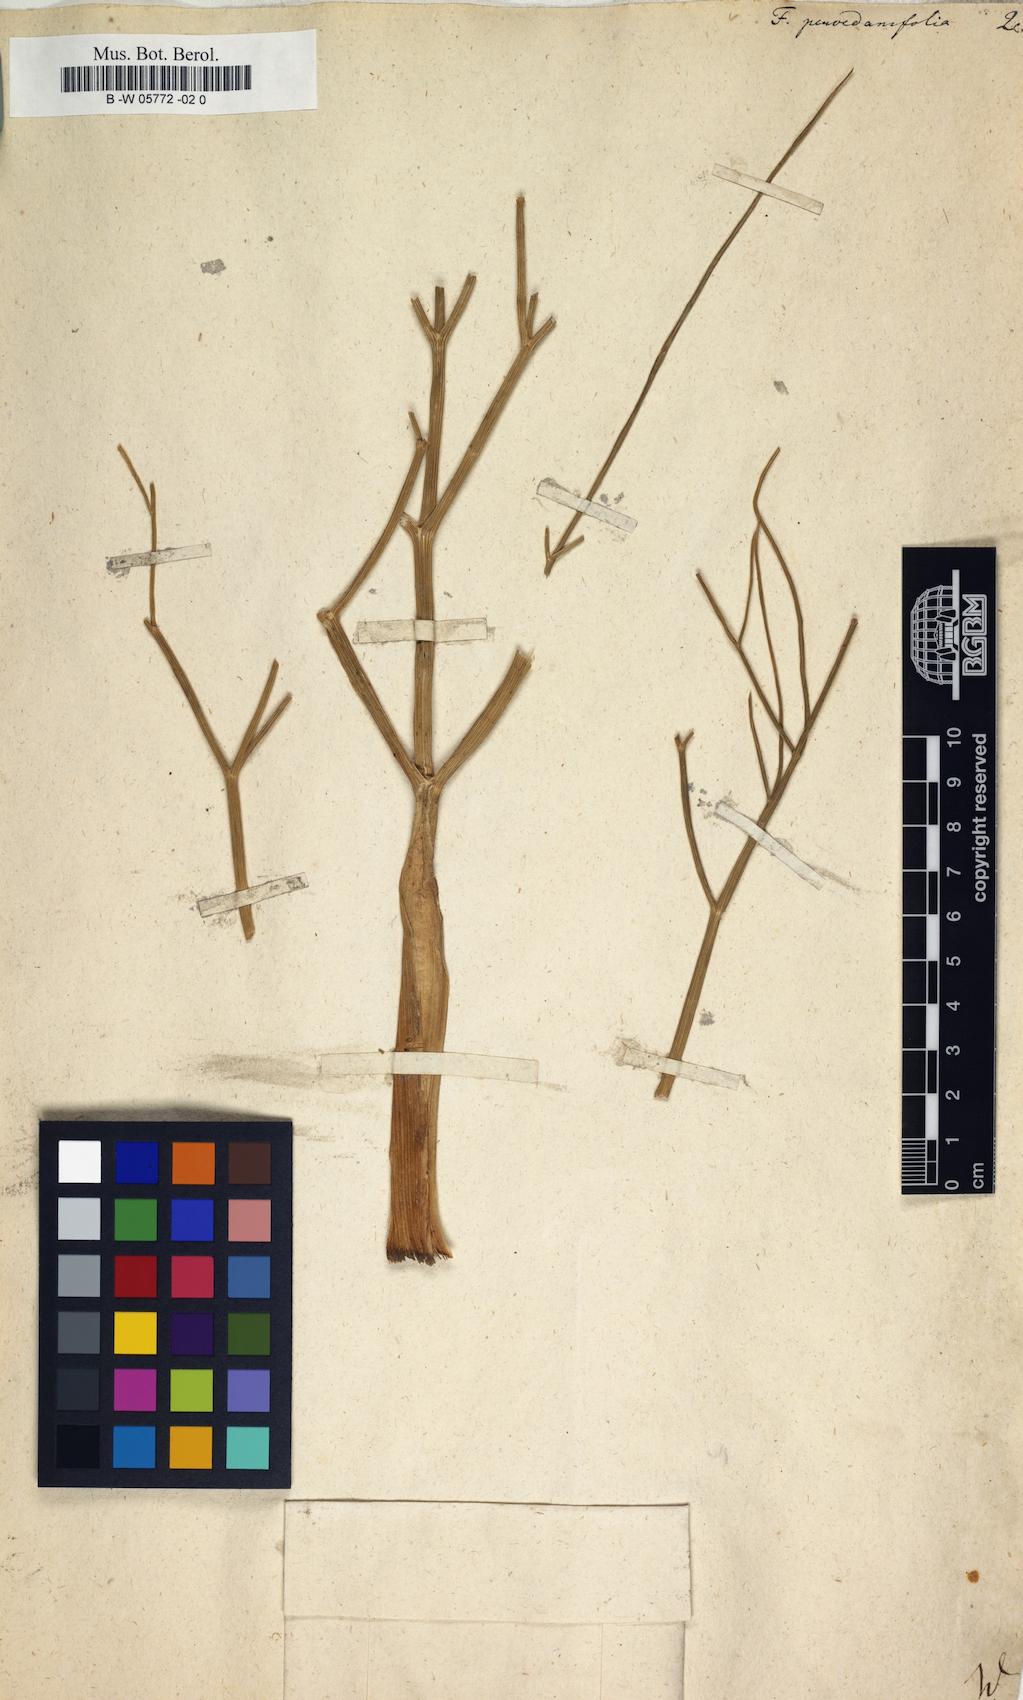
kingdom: Plantae
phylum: Tracheophyta
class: Magnoliopsida
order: Apiales
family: Apiaceae
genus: Ferula
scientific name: Ferula
